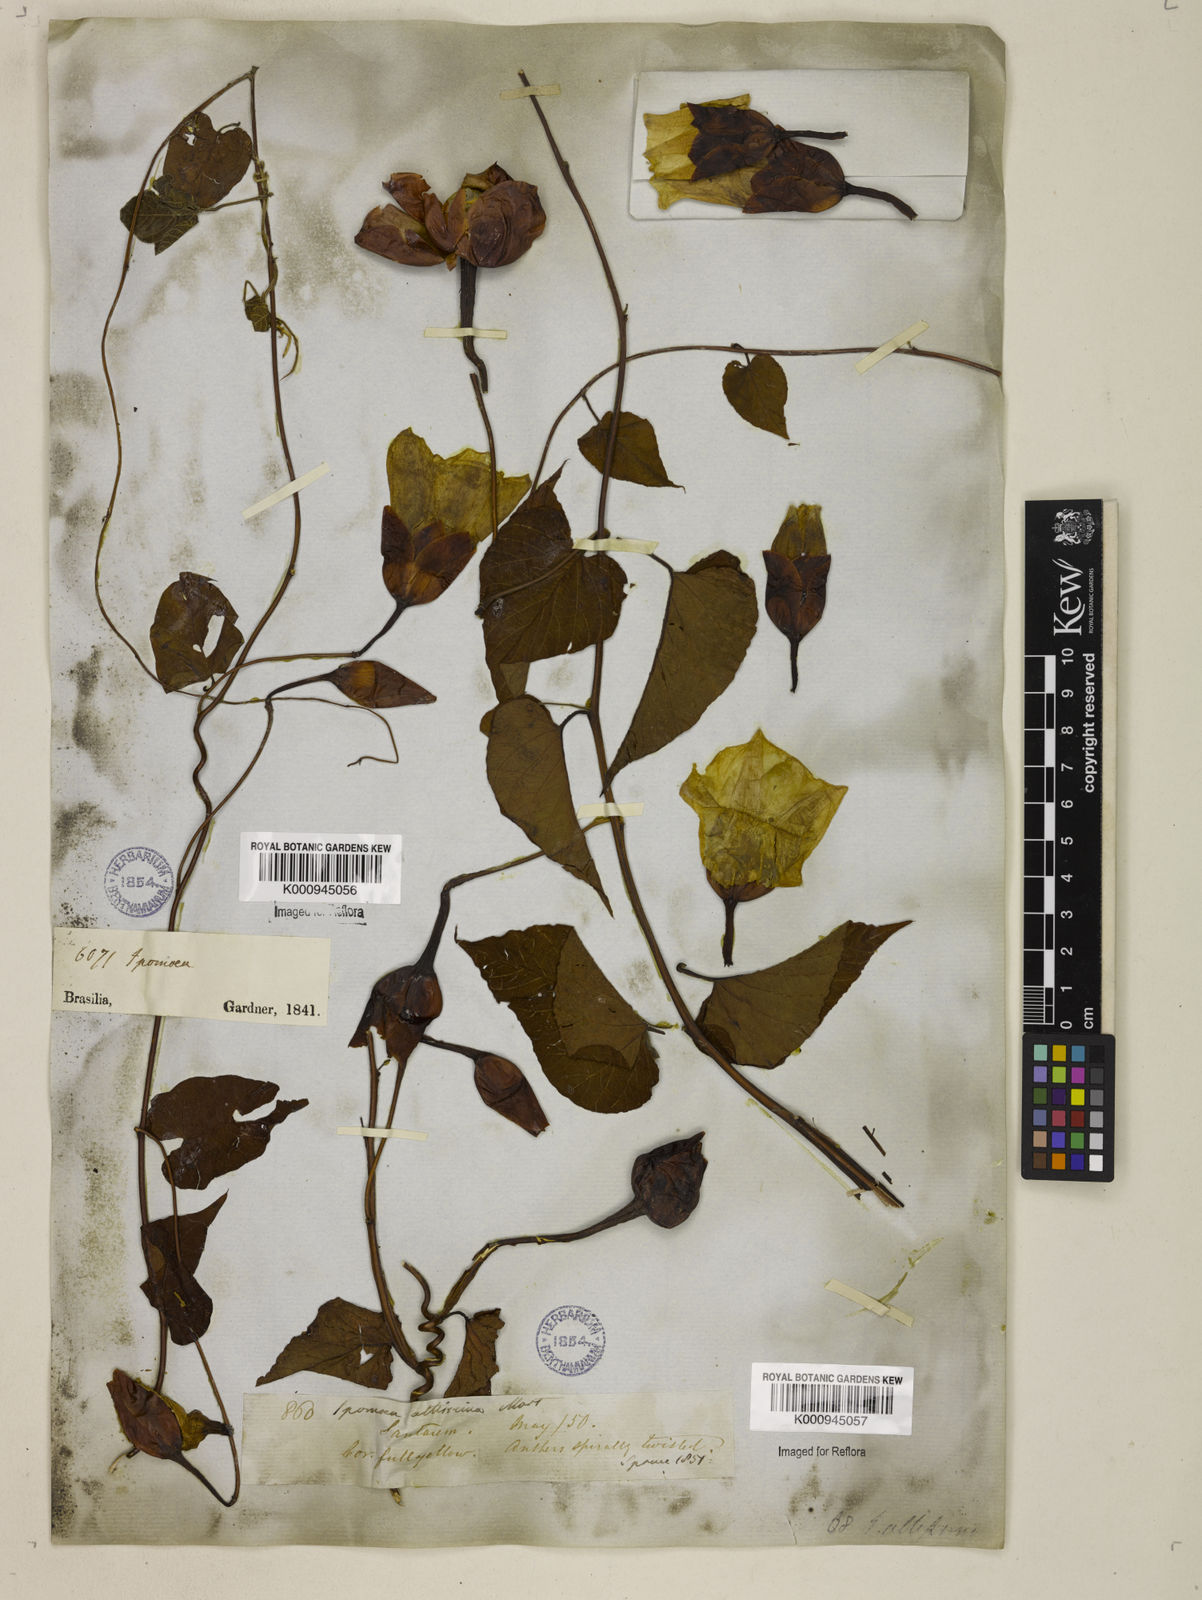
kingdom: Plantae
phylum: Tracheophyta
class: Magnoliopsida
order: Solanales
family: Convolvulaceae
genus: Operculina
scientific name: Operculina hamiltonii
